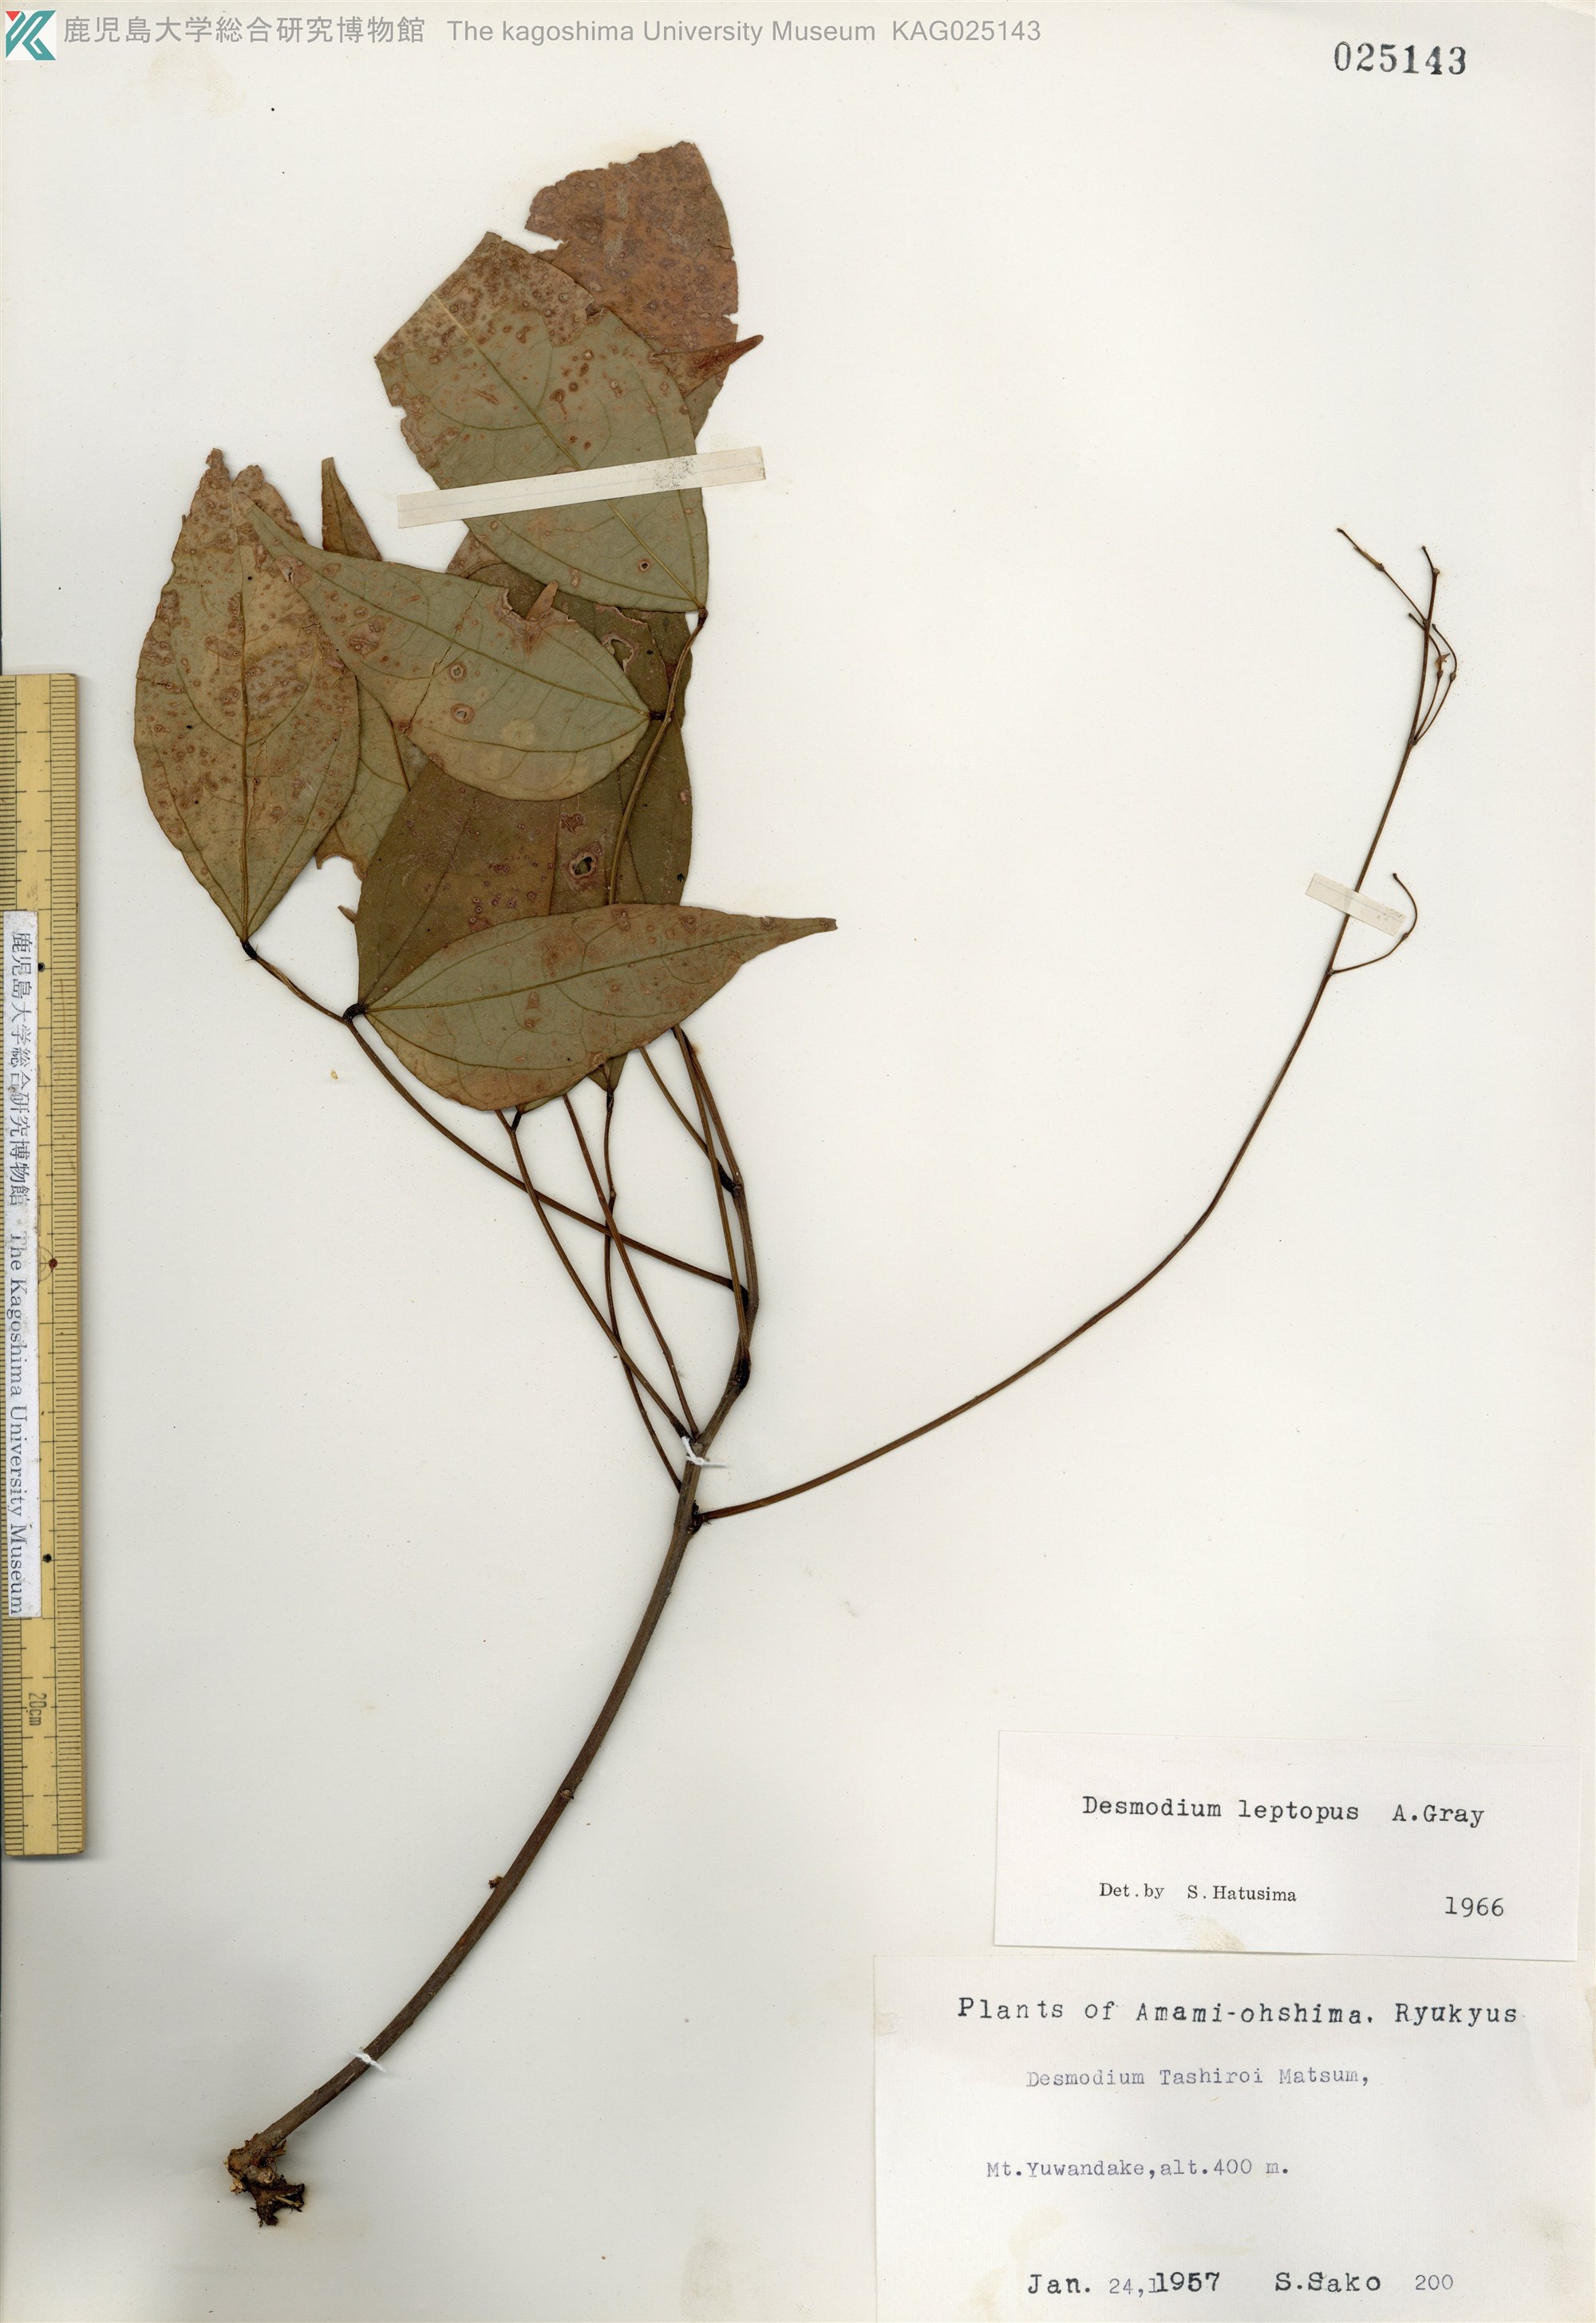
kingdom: Plantae
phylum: Tracheophyta
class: Magnoliopsida
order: Fabales
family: Fabaceae
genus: Hylodesmum
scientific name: Hylodesmum leptopus
